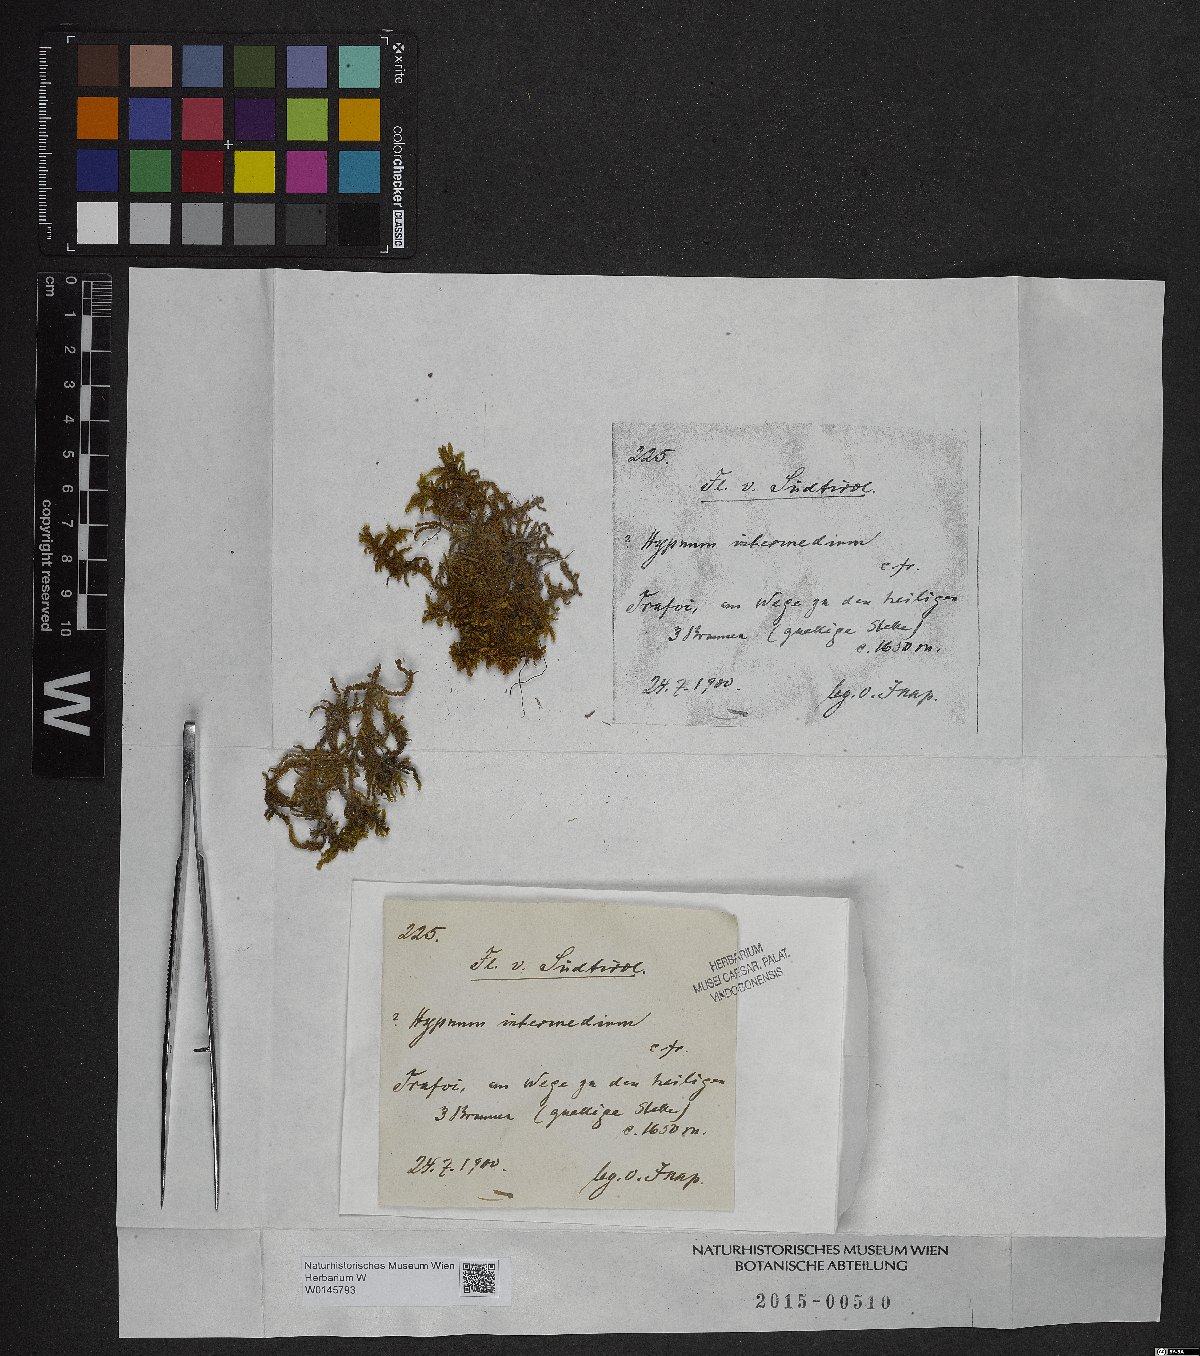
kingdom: Plantae
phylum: Bryophyta
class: Bryopsida
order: Hypnales
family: Thuidiaceae
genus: Thuidium
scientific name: Thuidium arzobispoae
